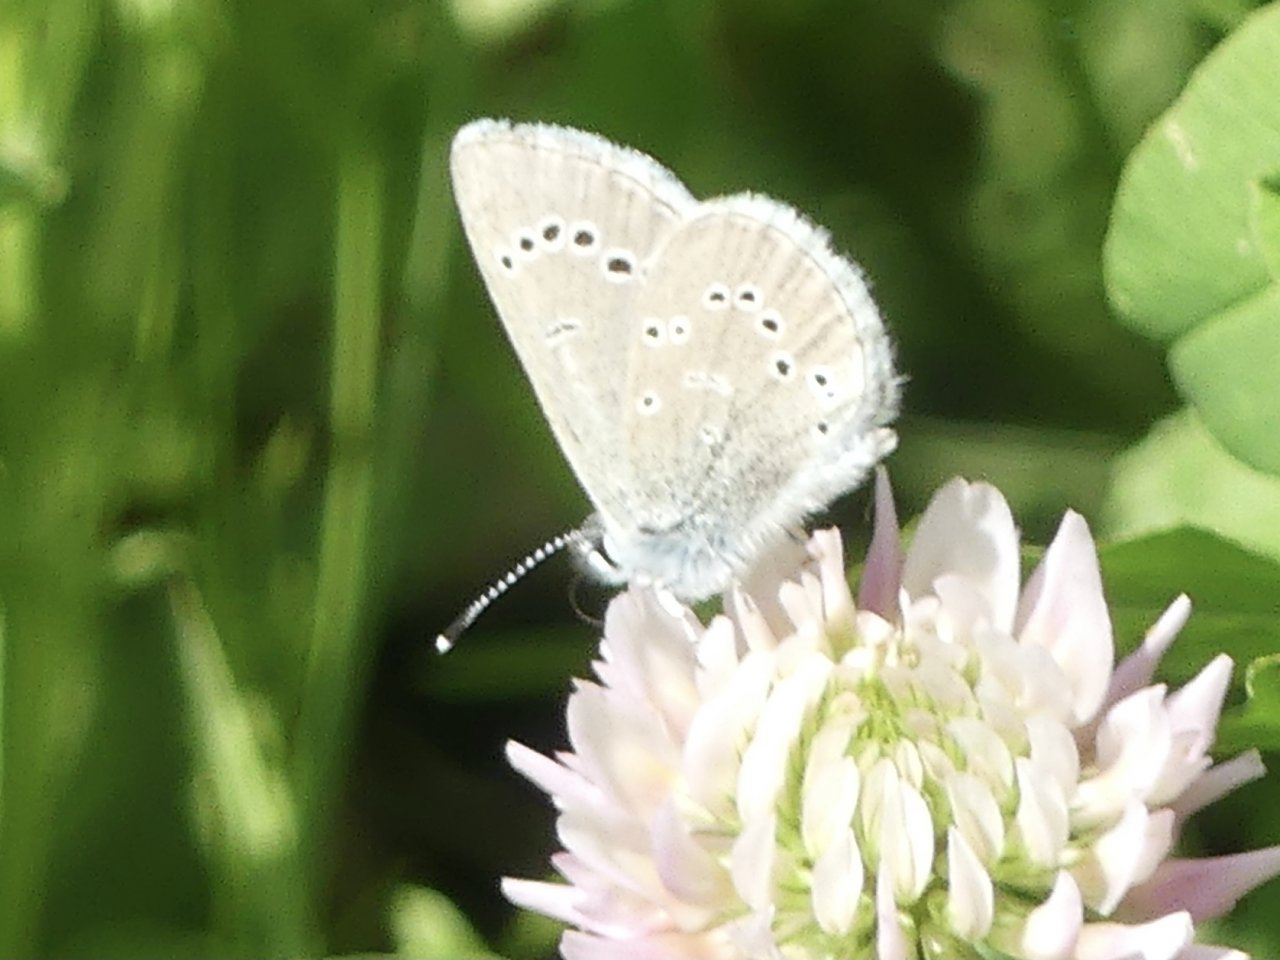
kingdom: Animalia
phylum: Arthropoda
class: Insecta
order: Lepidoptera
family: Lycaenidae
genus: Glaucopsyche
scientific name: Glaucopsyche lygdamus
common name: Silvery Blue
